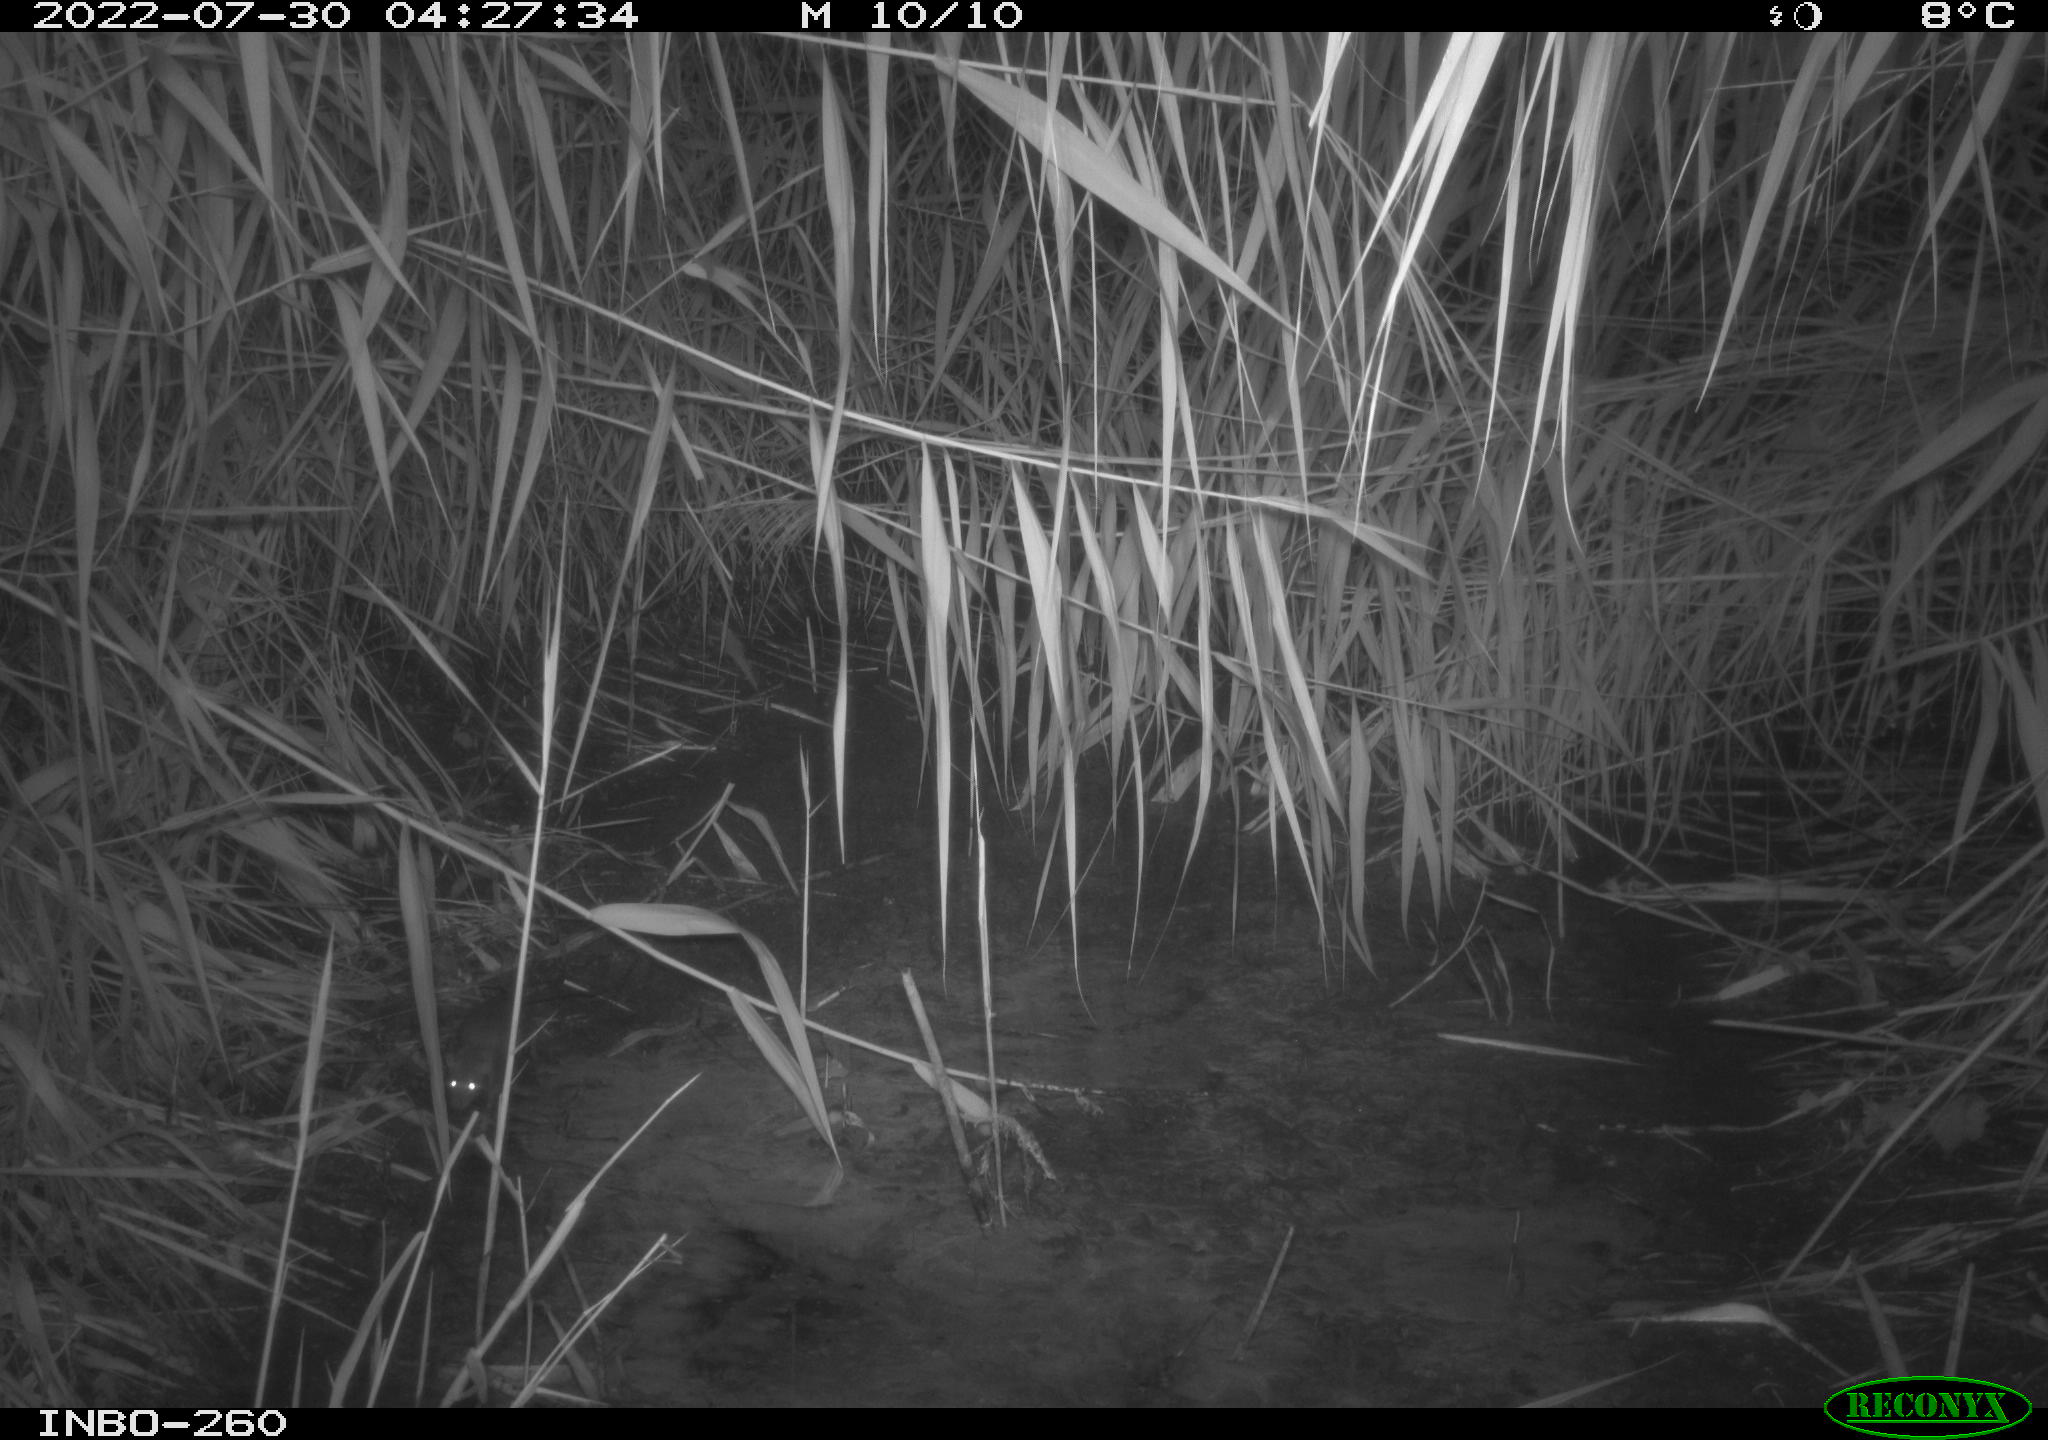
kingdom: Animalia
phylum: Chordata
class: Mammalia
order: Rodentia
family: Muridae
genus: Rattus
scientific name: Rattus norvegicus
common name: Brown rat
